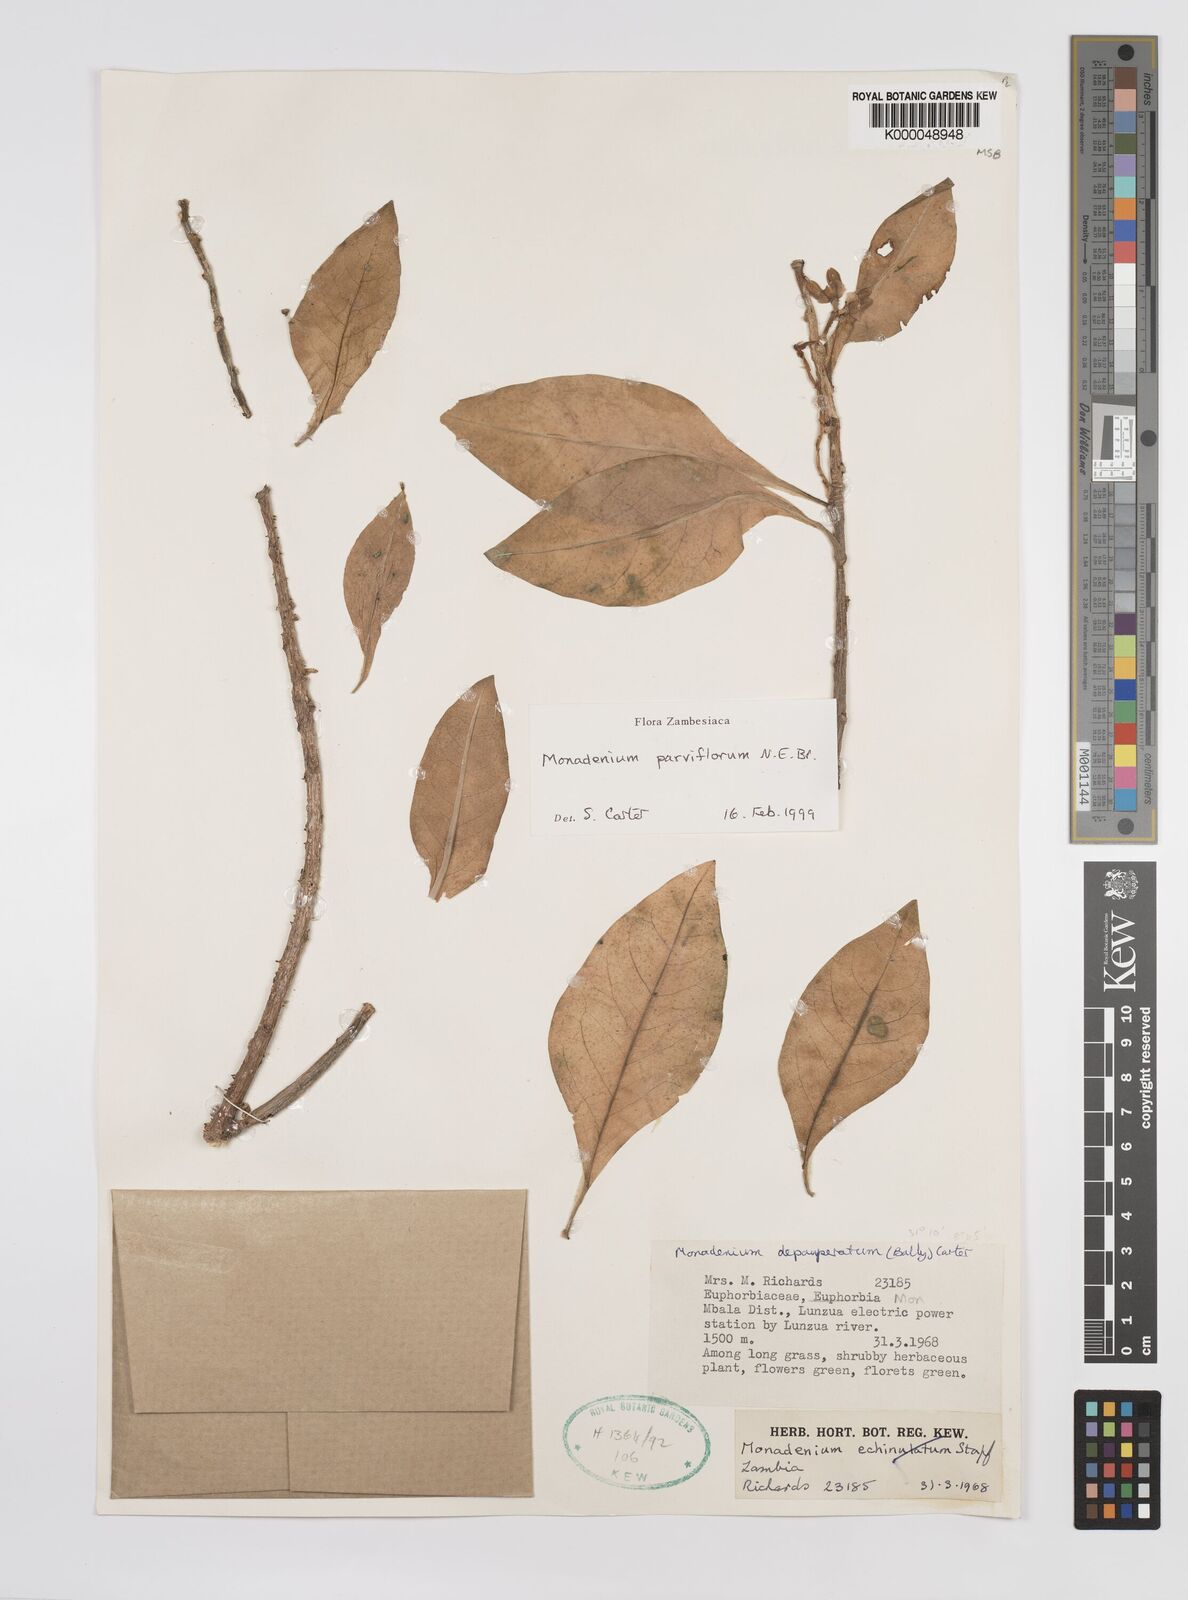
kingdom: Plantae
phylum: Tracheophyta
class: Magnoliopsida
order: Malpighiales
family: Euphorbiaceae
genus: Euphorbia
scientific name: Euphorbia neoparviflora
